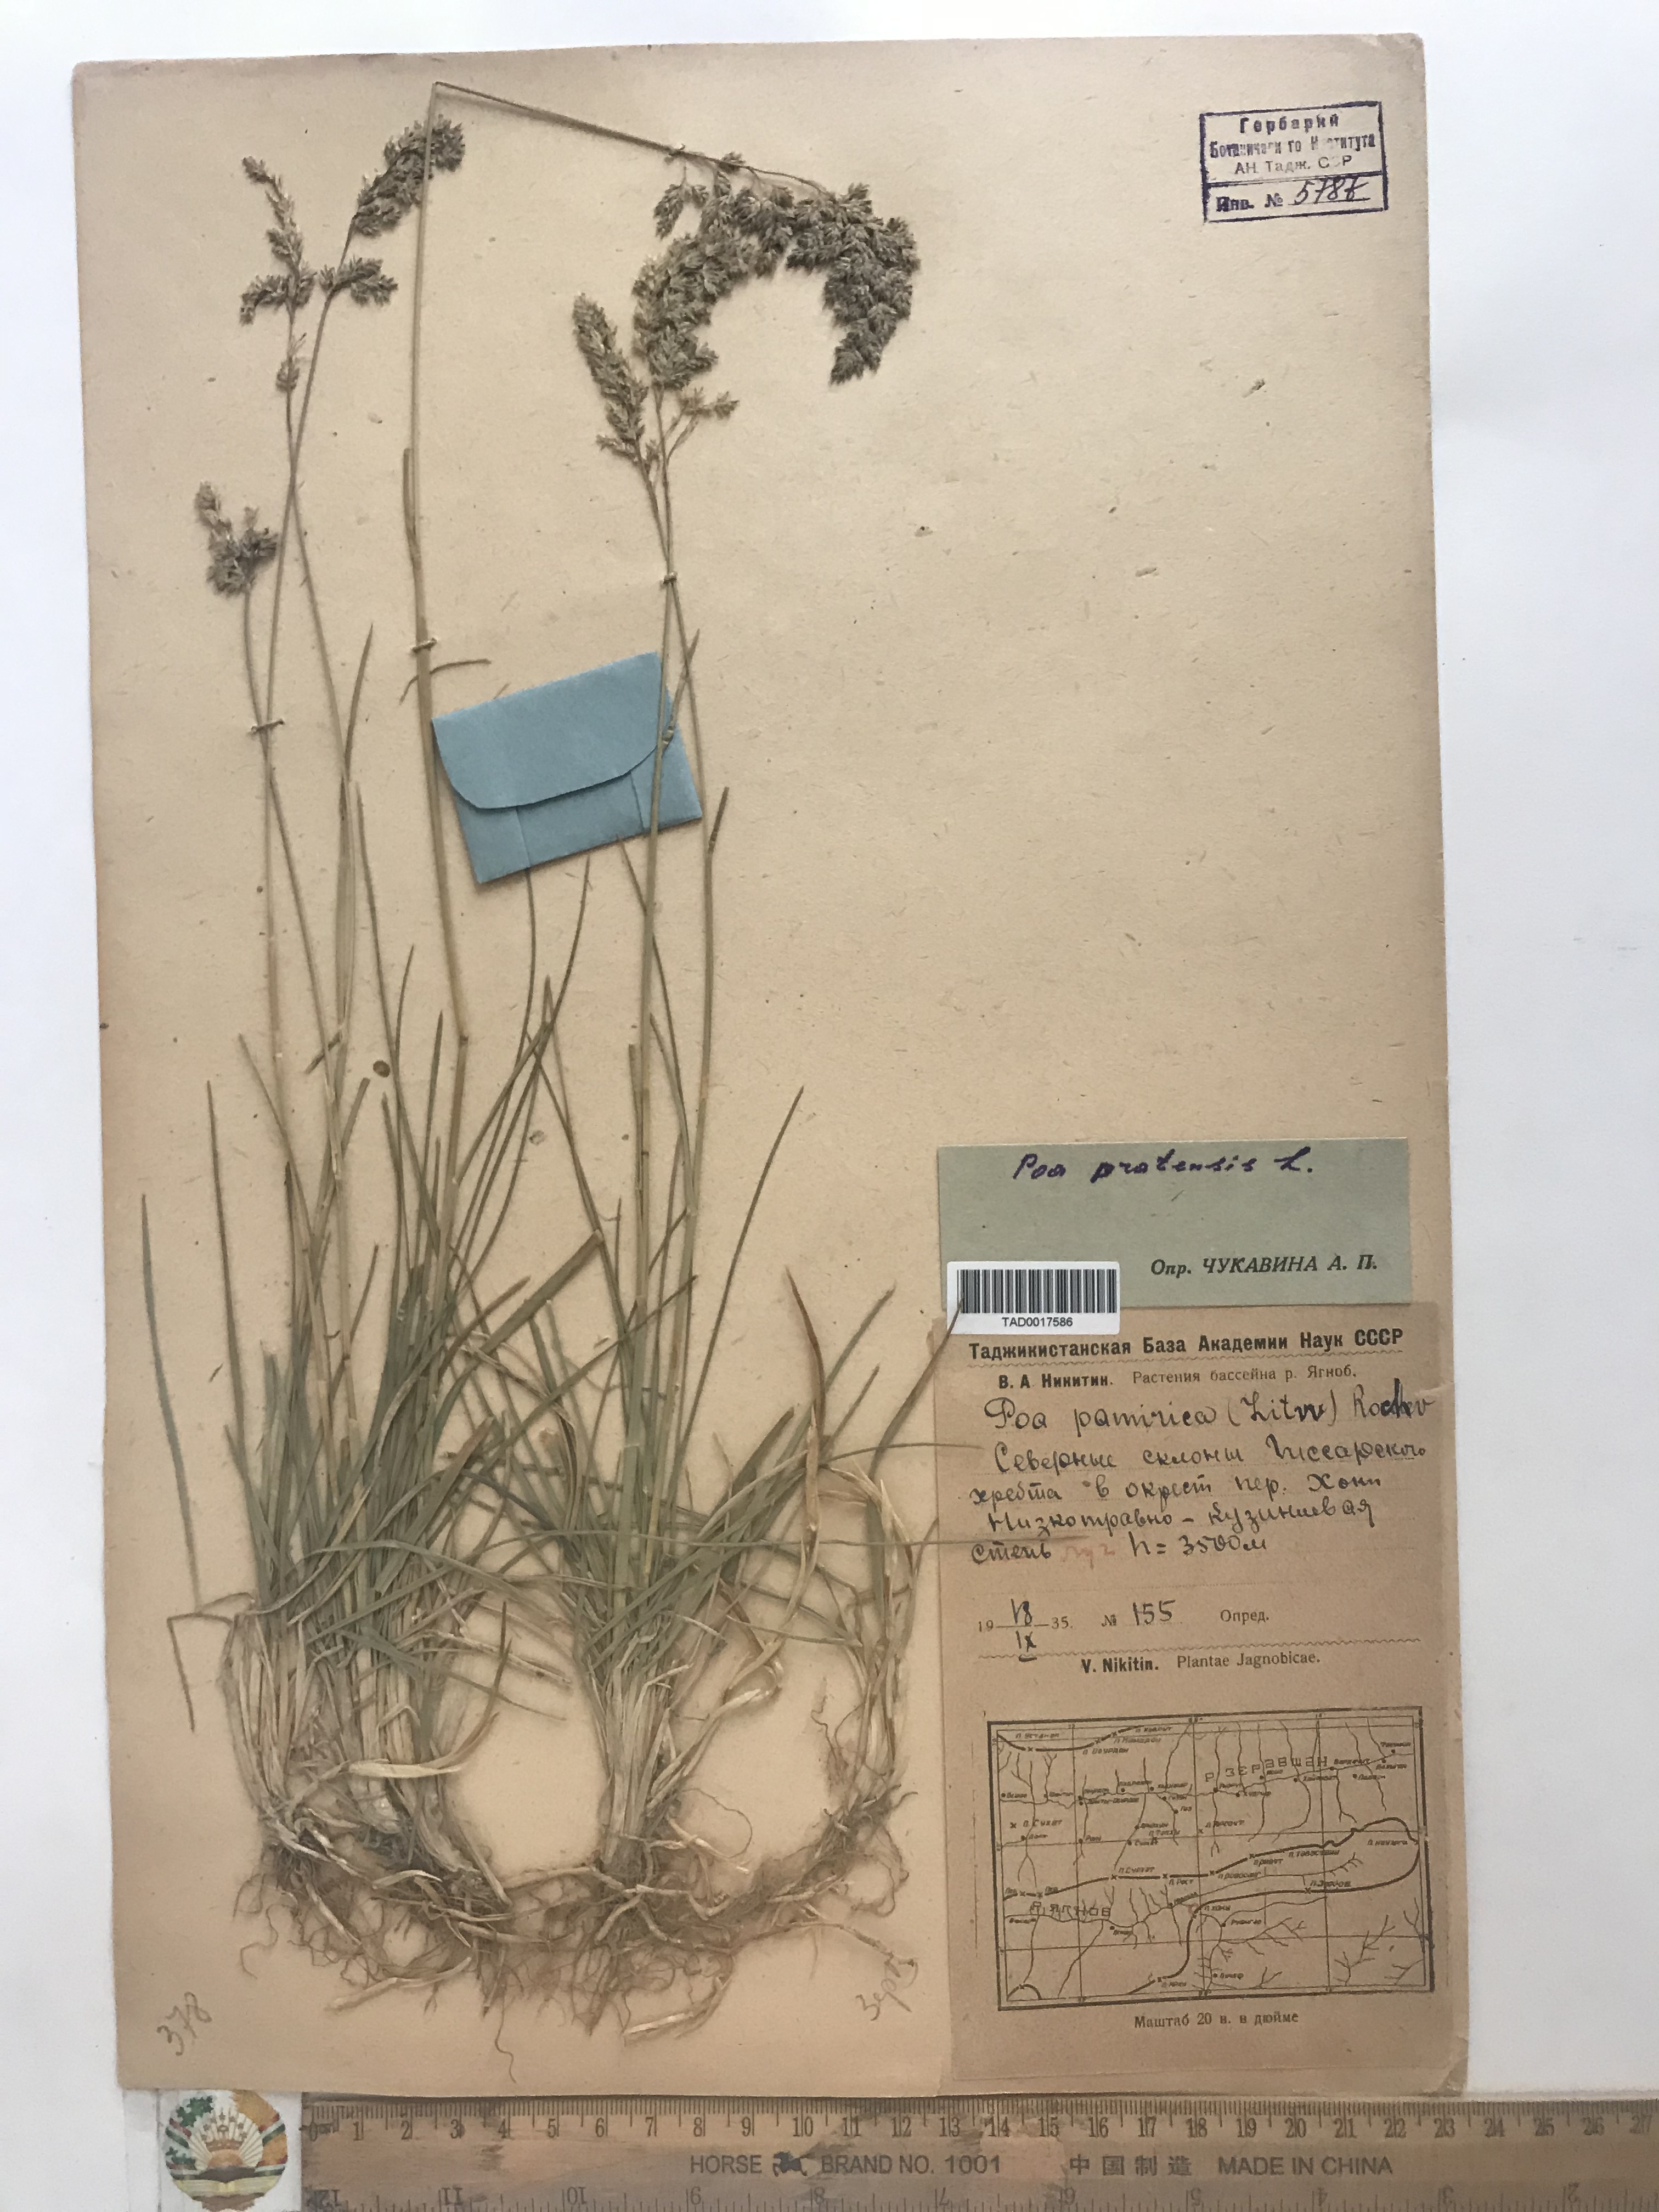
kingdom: Plantae
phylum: Tracheophyta
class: Liliopsida
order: Poales
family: Poaceae
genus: Poa
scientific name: Poa pratensis
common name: Kentucky bluegrass
